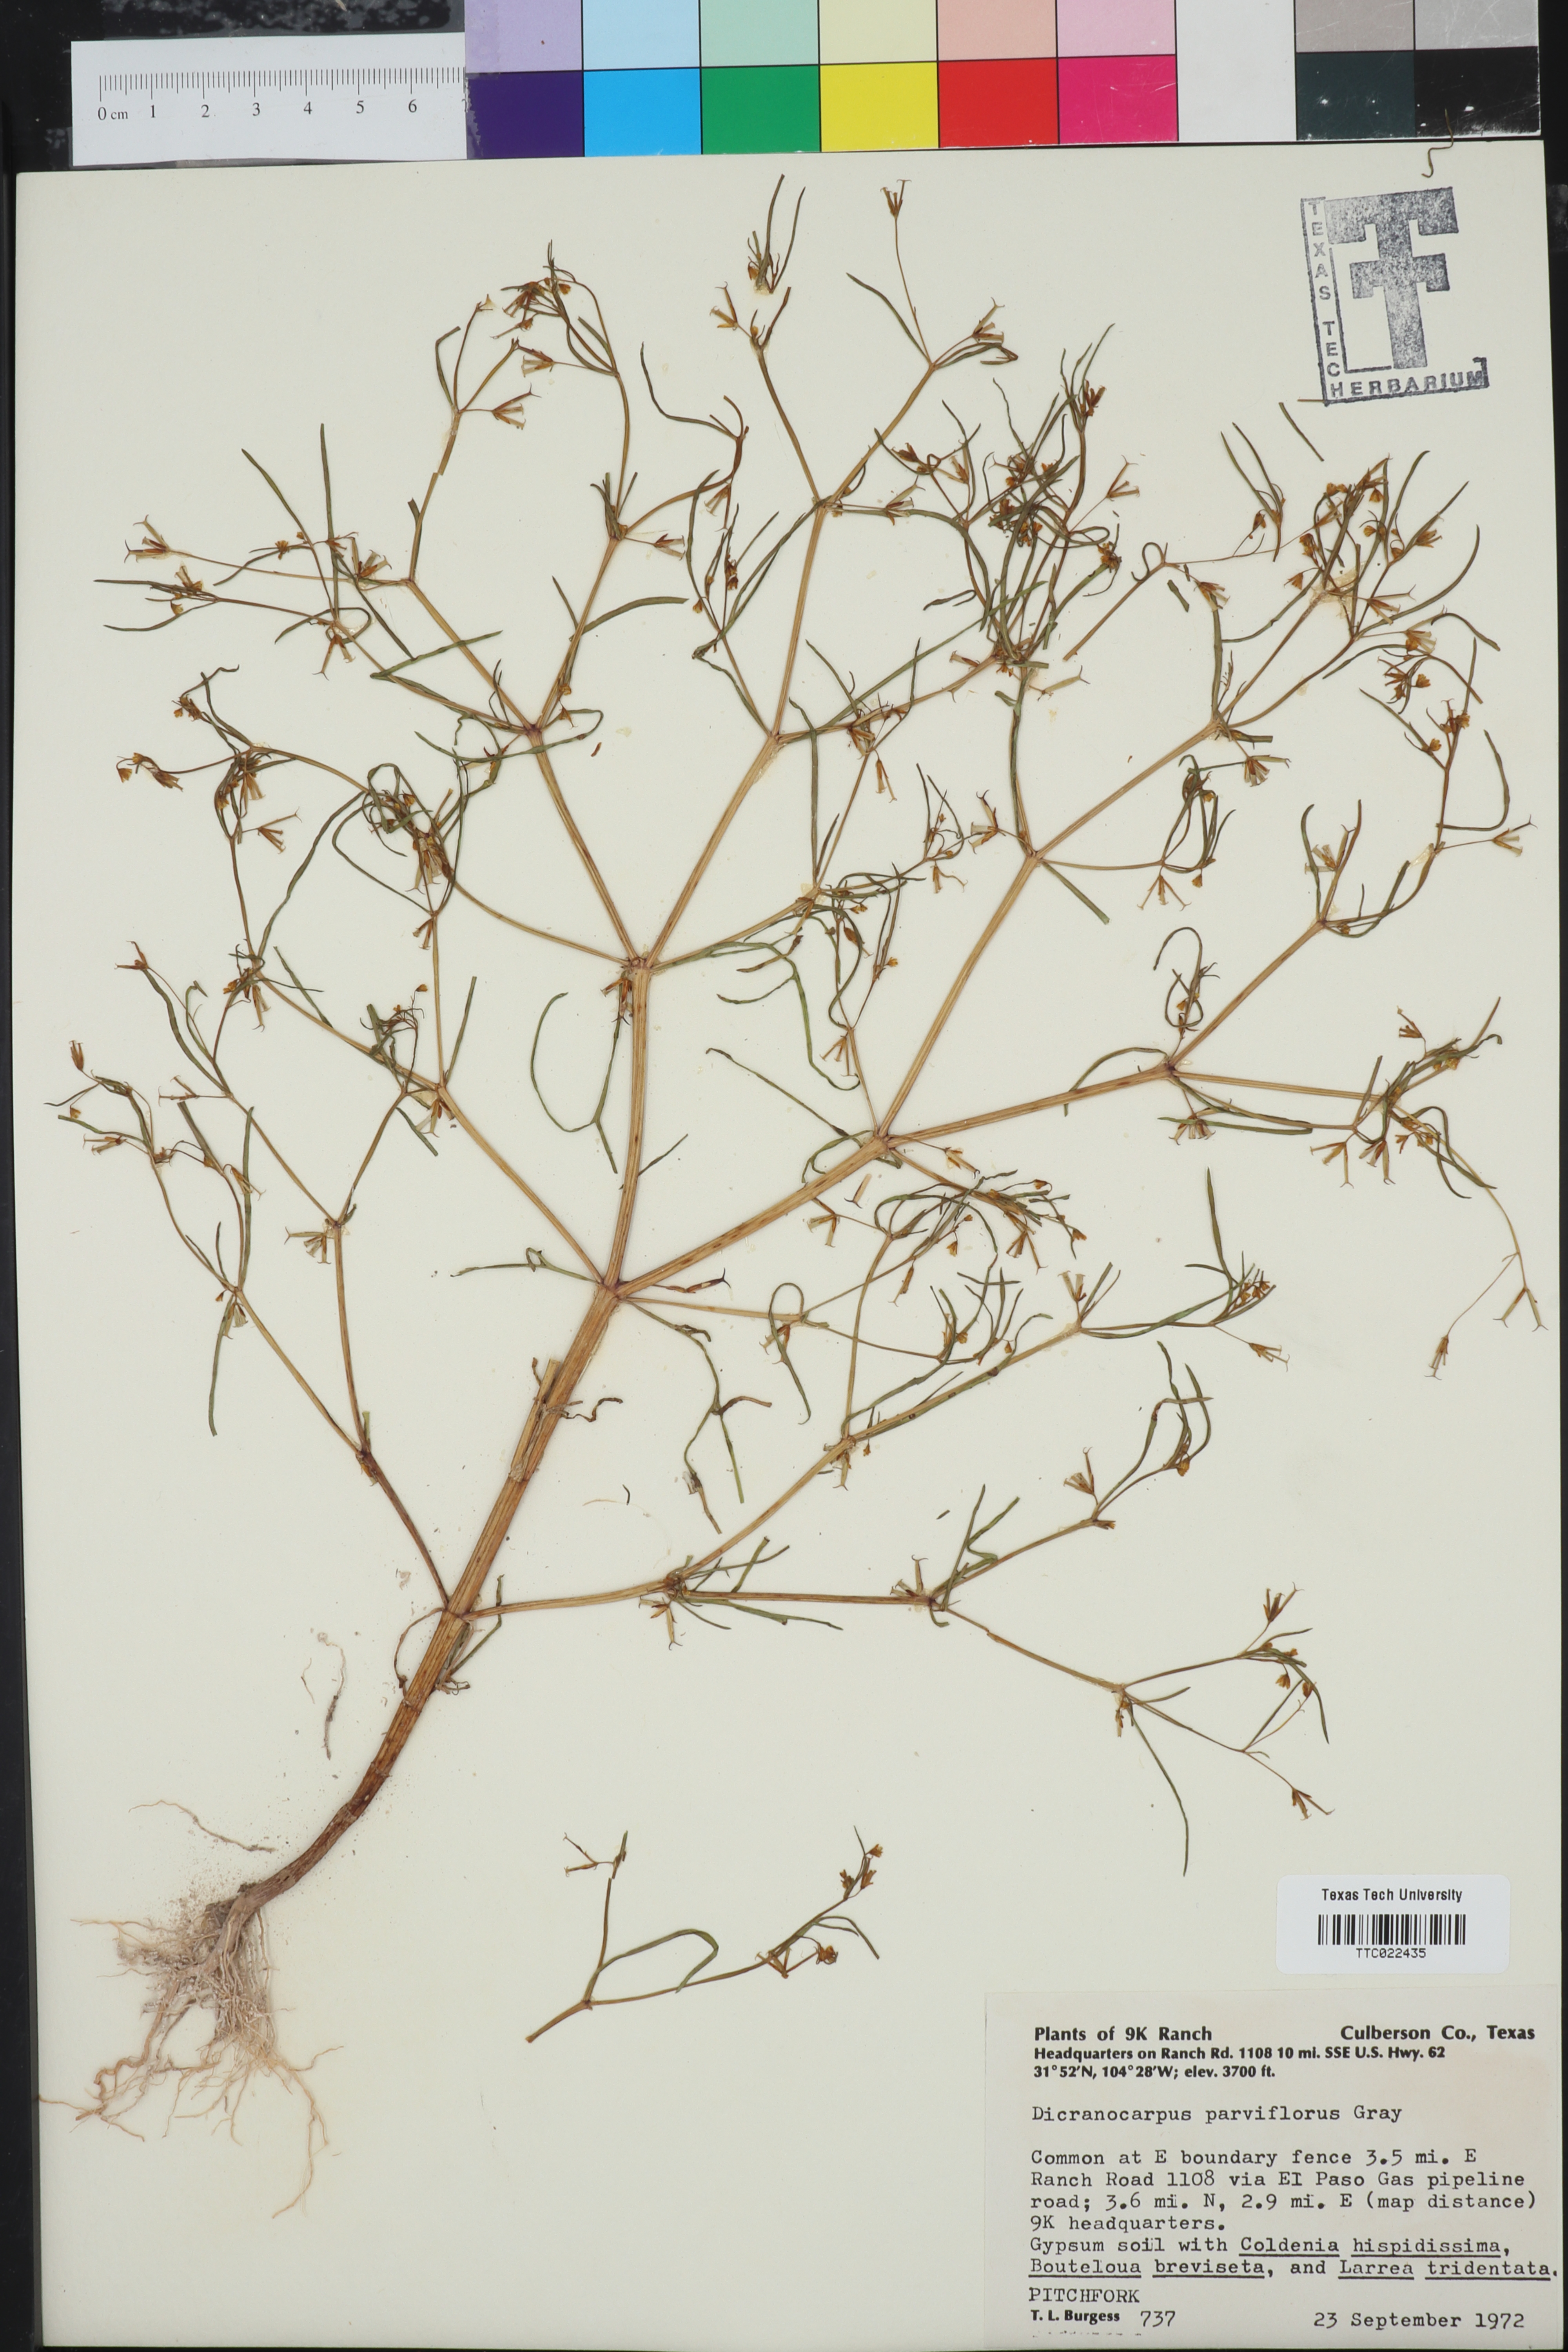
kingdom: Plantae
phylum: Tracheophyta
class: Magnoliopsida
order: Asterales
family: Asteraceae
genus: Dicranocarpus
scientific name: Dicranocarpus parviflorus
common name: Pitchfork
